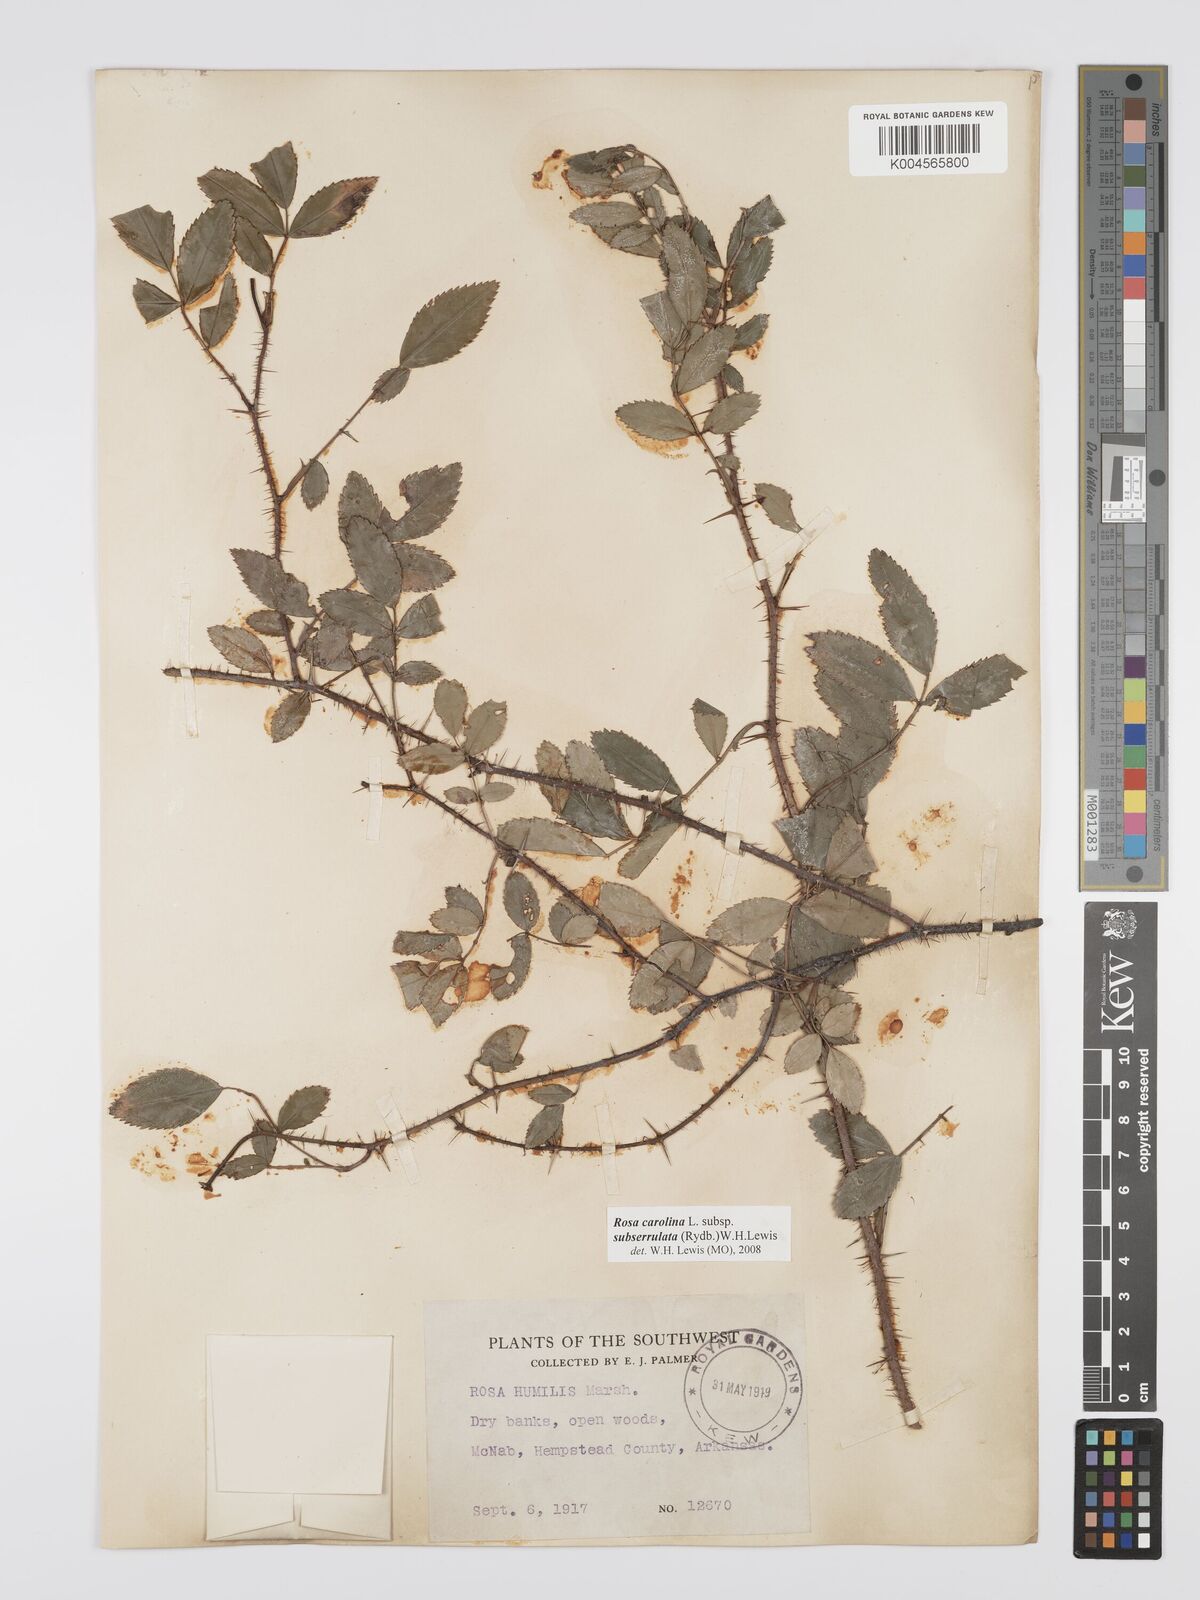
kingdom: Plantae
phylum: Tracheophyta
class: Magnoliopsida
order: Rosales
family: Rosaceae
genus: Rosa
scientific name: Rosa carolina
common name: Pasture rose
